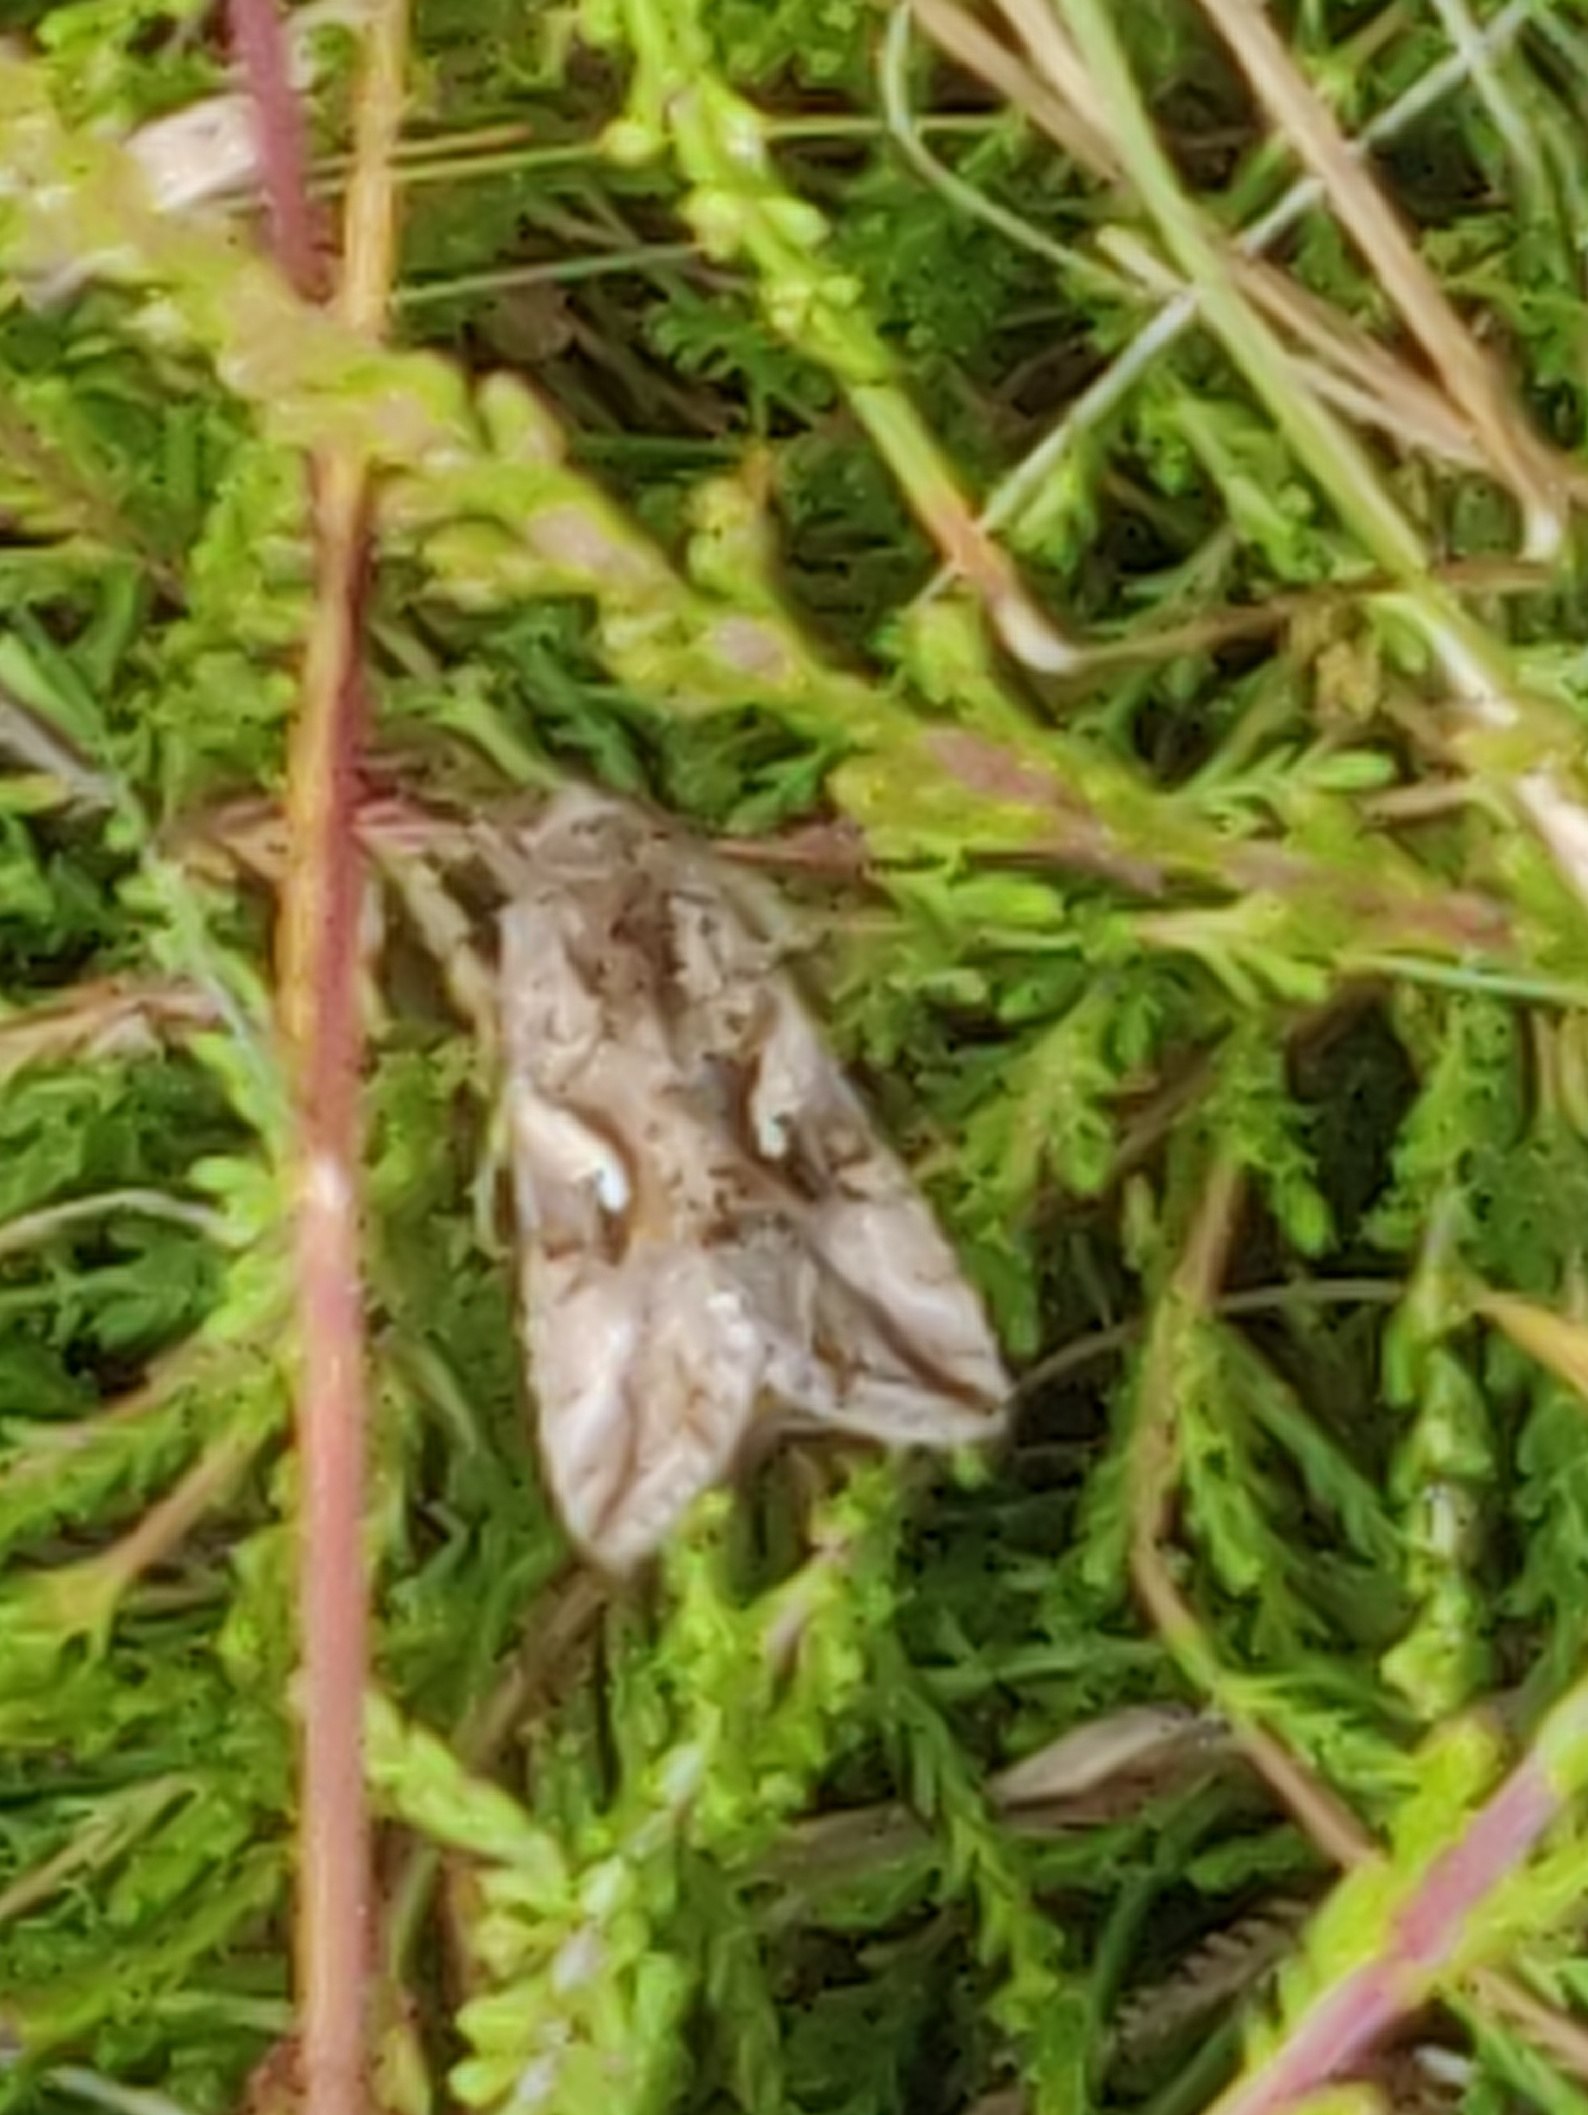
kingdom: Animalia
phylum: Arthropoda
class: Insecta
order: Lepidoptera
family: Noctuidae
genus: Autographa
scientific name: Autographa gamma
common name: Gammaugle
